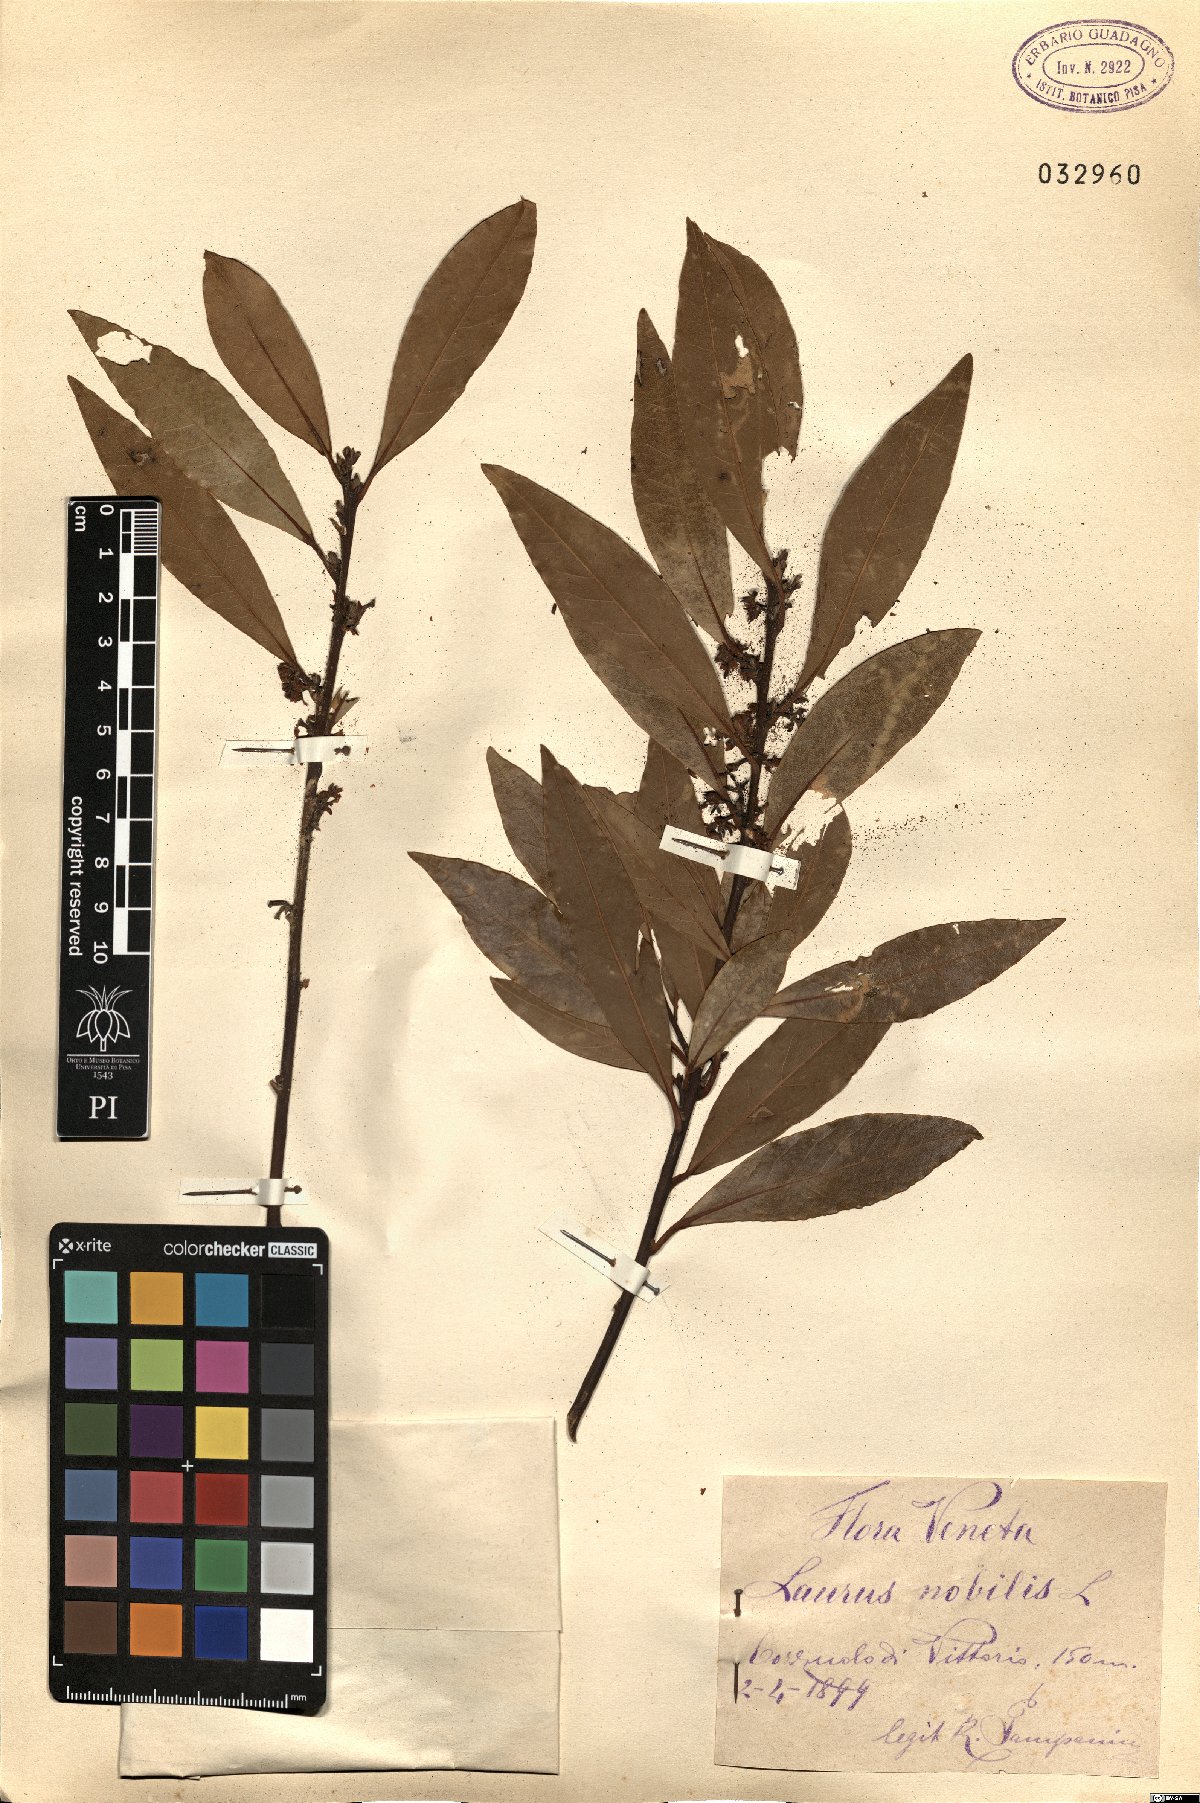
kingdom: Plantae
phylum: Tracheophyta
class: Magnoliopsida
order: Laurales
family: Lauraceae
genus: Laurus
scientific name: Laurus nobilis
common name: Bay
